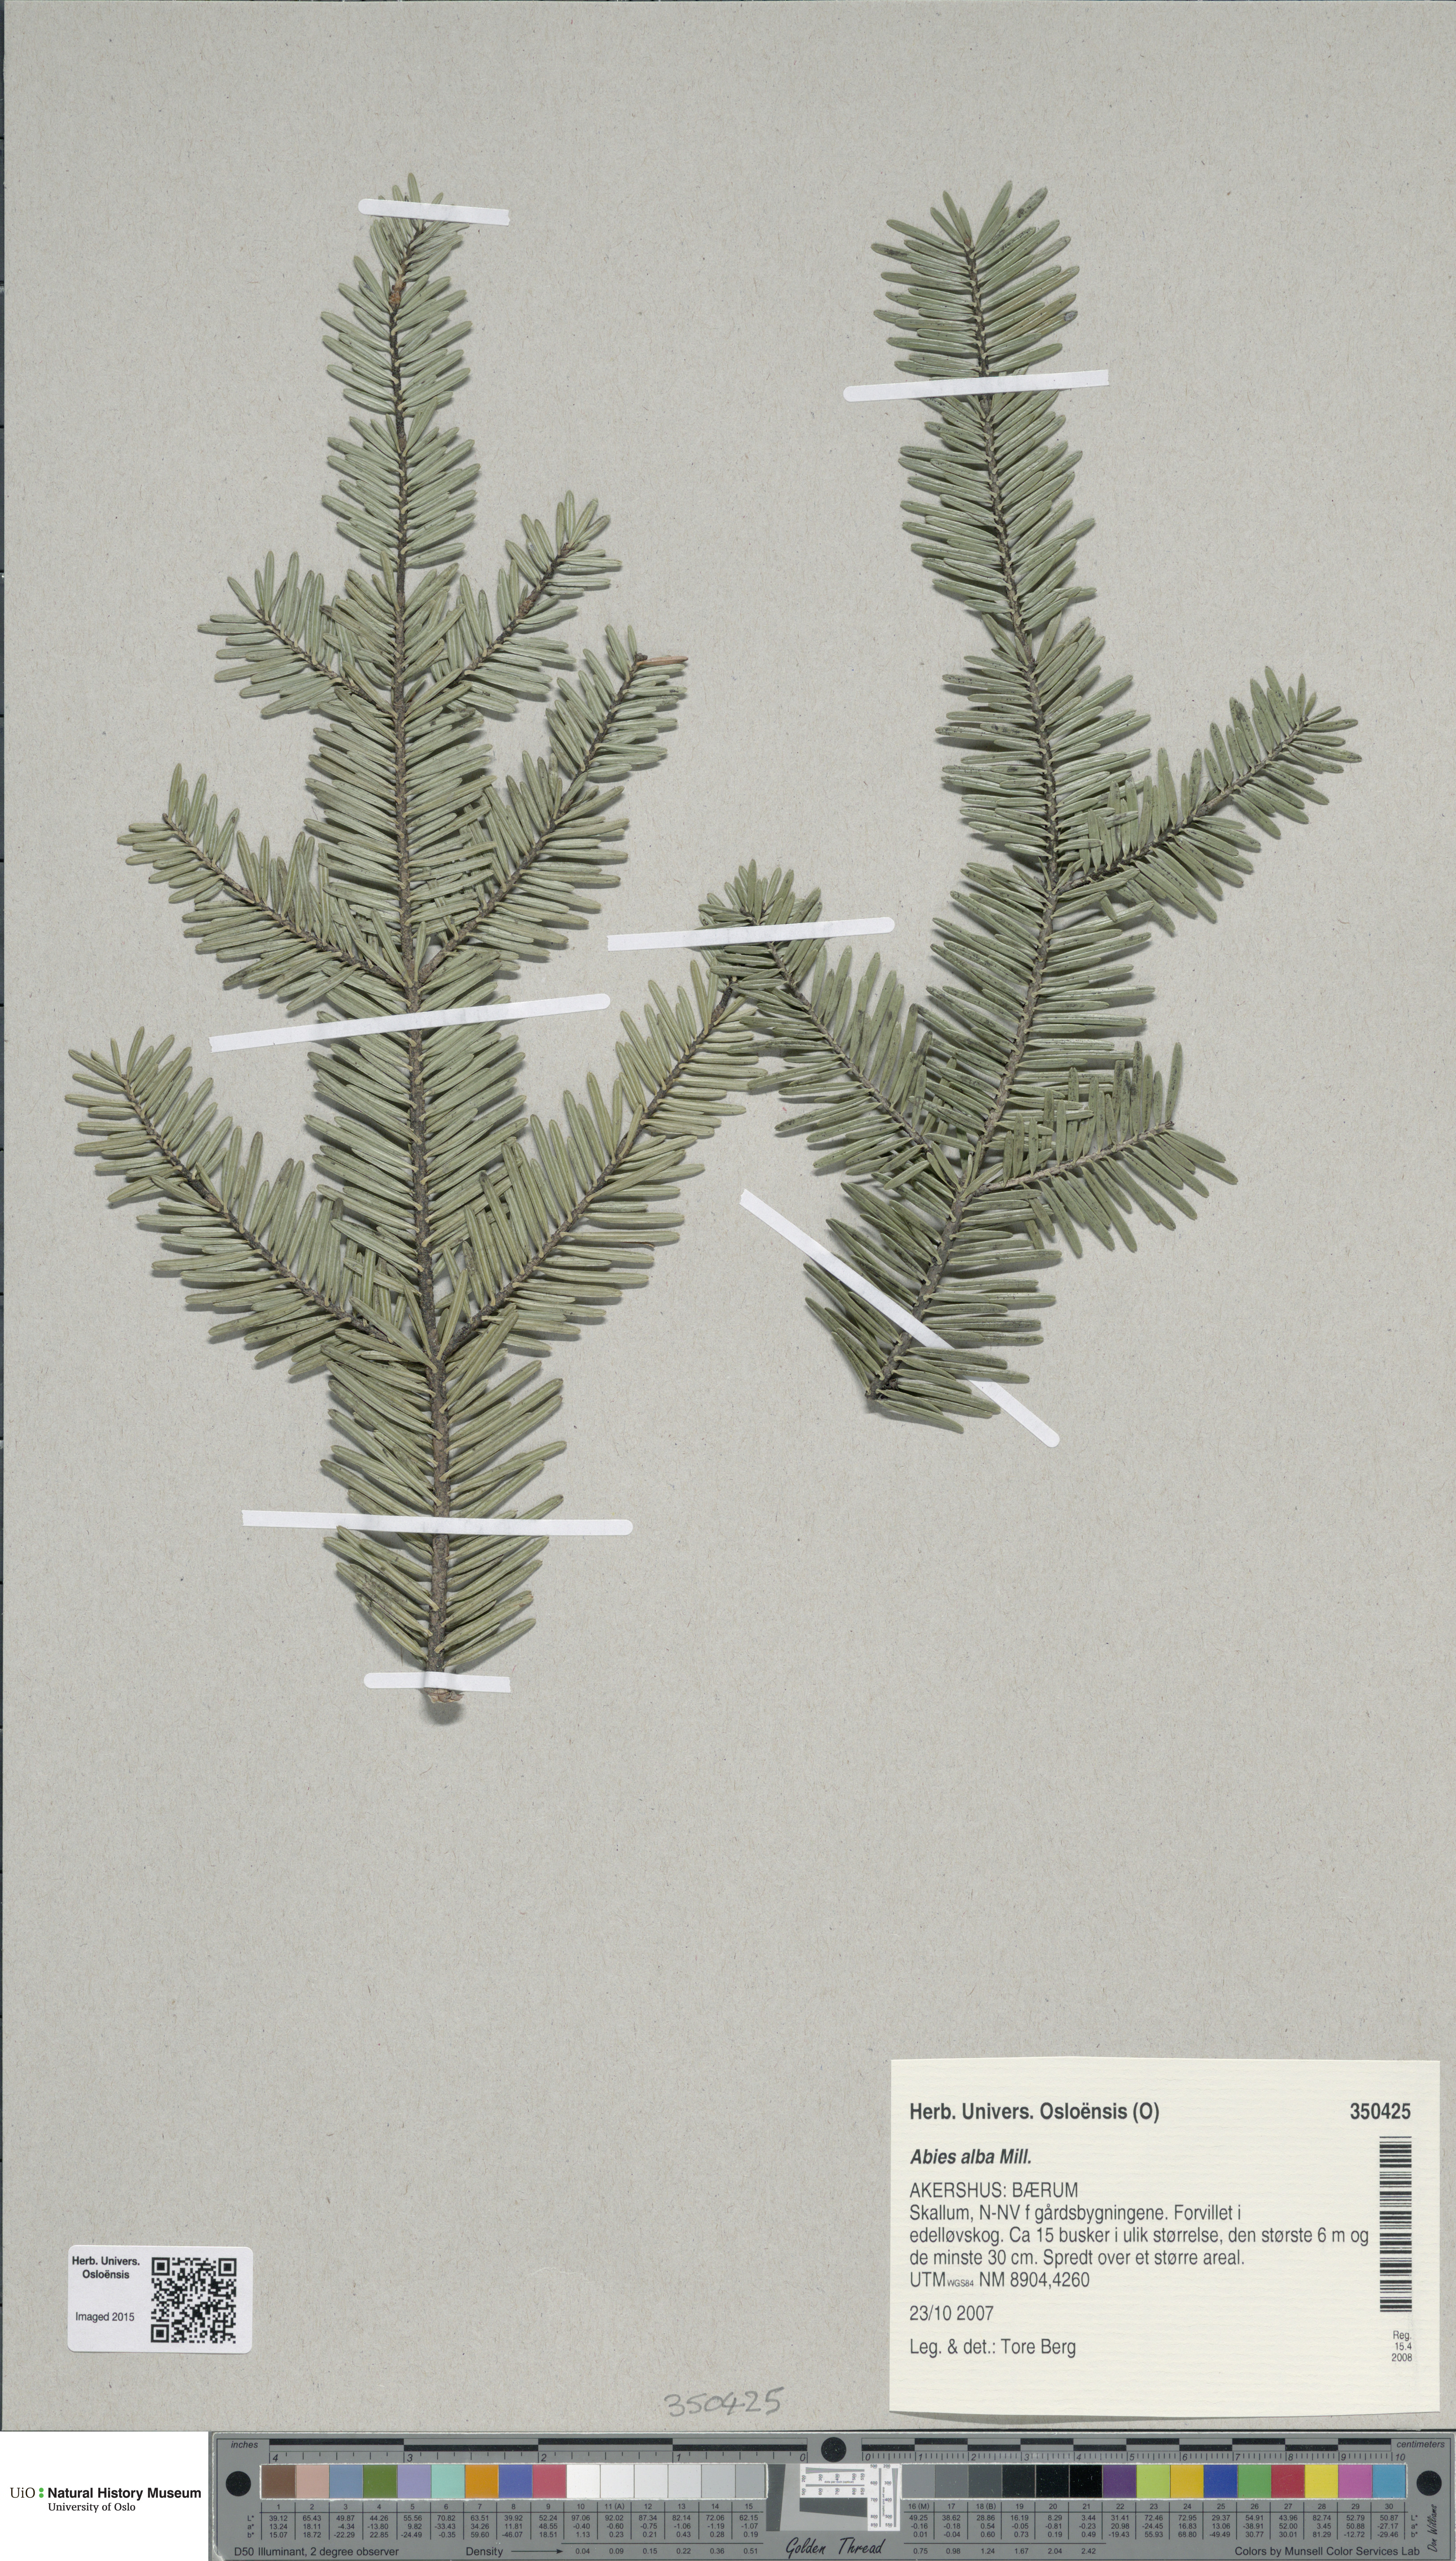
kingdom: Plantae
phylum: Tracheophyta
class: Pinopsida
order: Pinales
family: Pinaceae
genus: Abies
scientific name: Abies alba
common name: Silver fir
